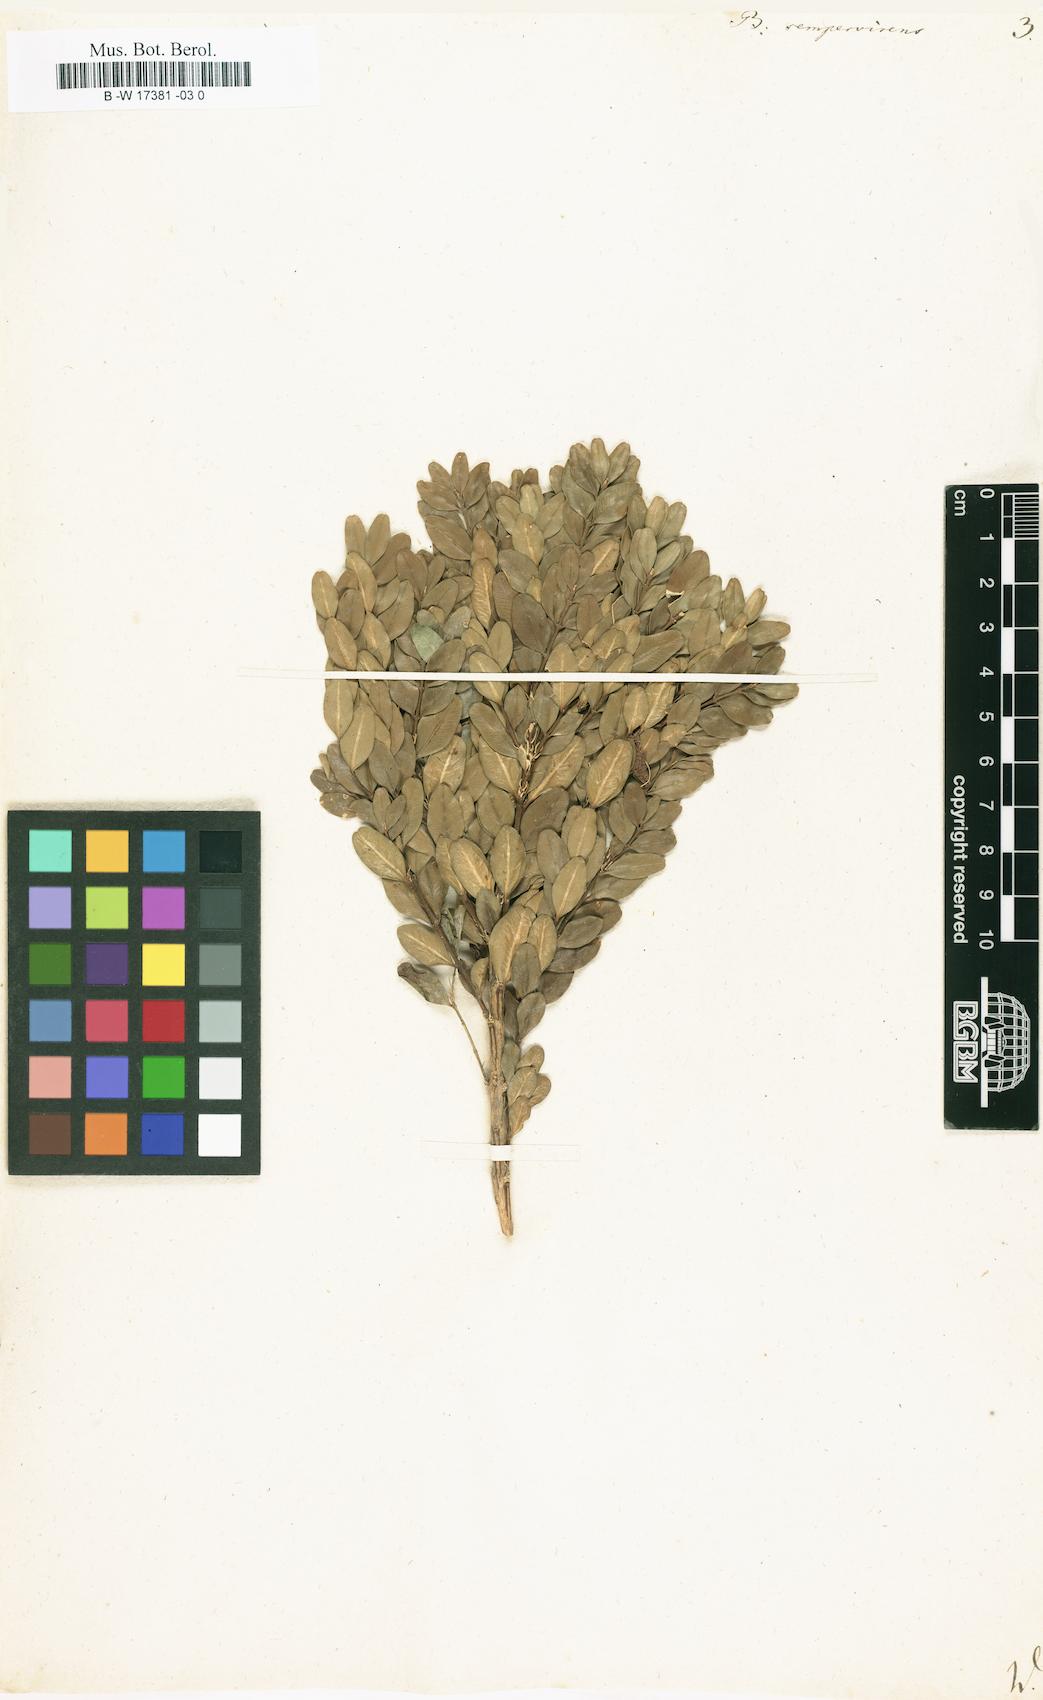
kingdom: Plantae
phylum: Tracheophyta
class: Magnoliopsida
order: Buxales
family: Buxaceae
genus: Buxus
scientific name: Buxus sempervirens
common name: Box
